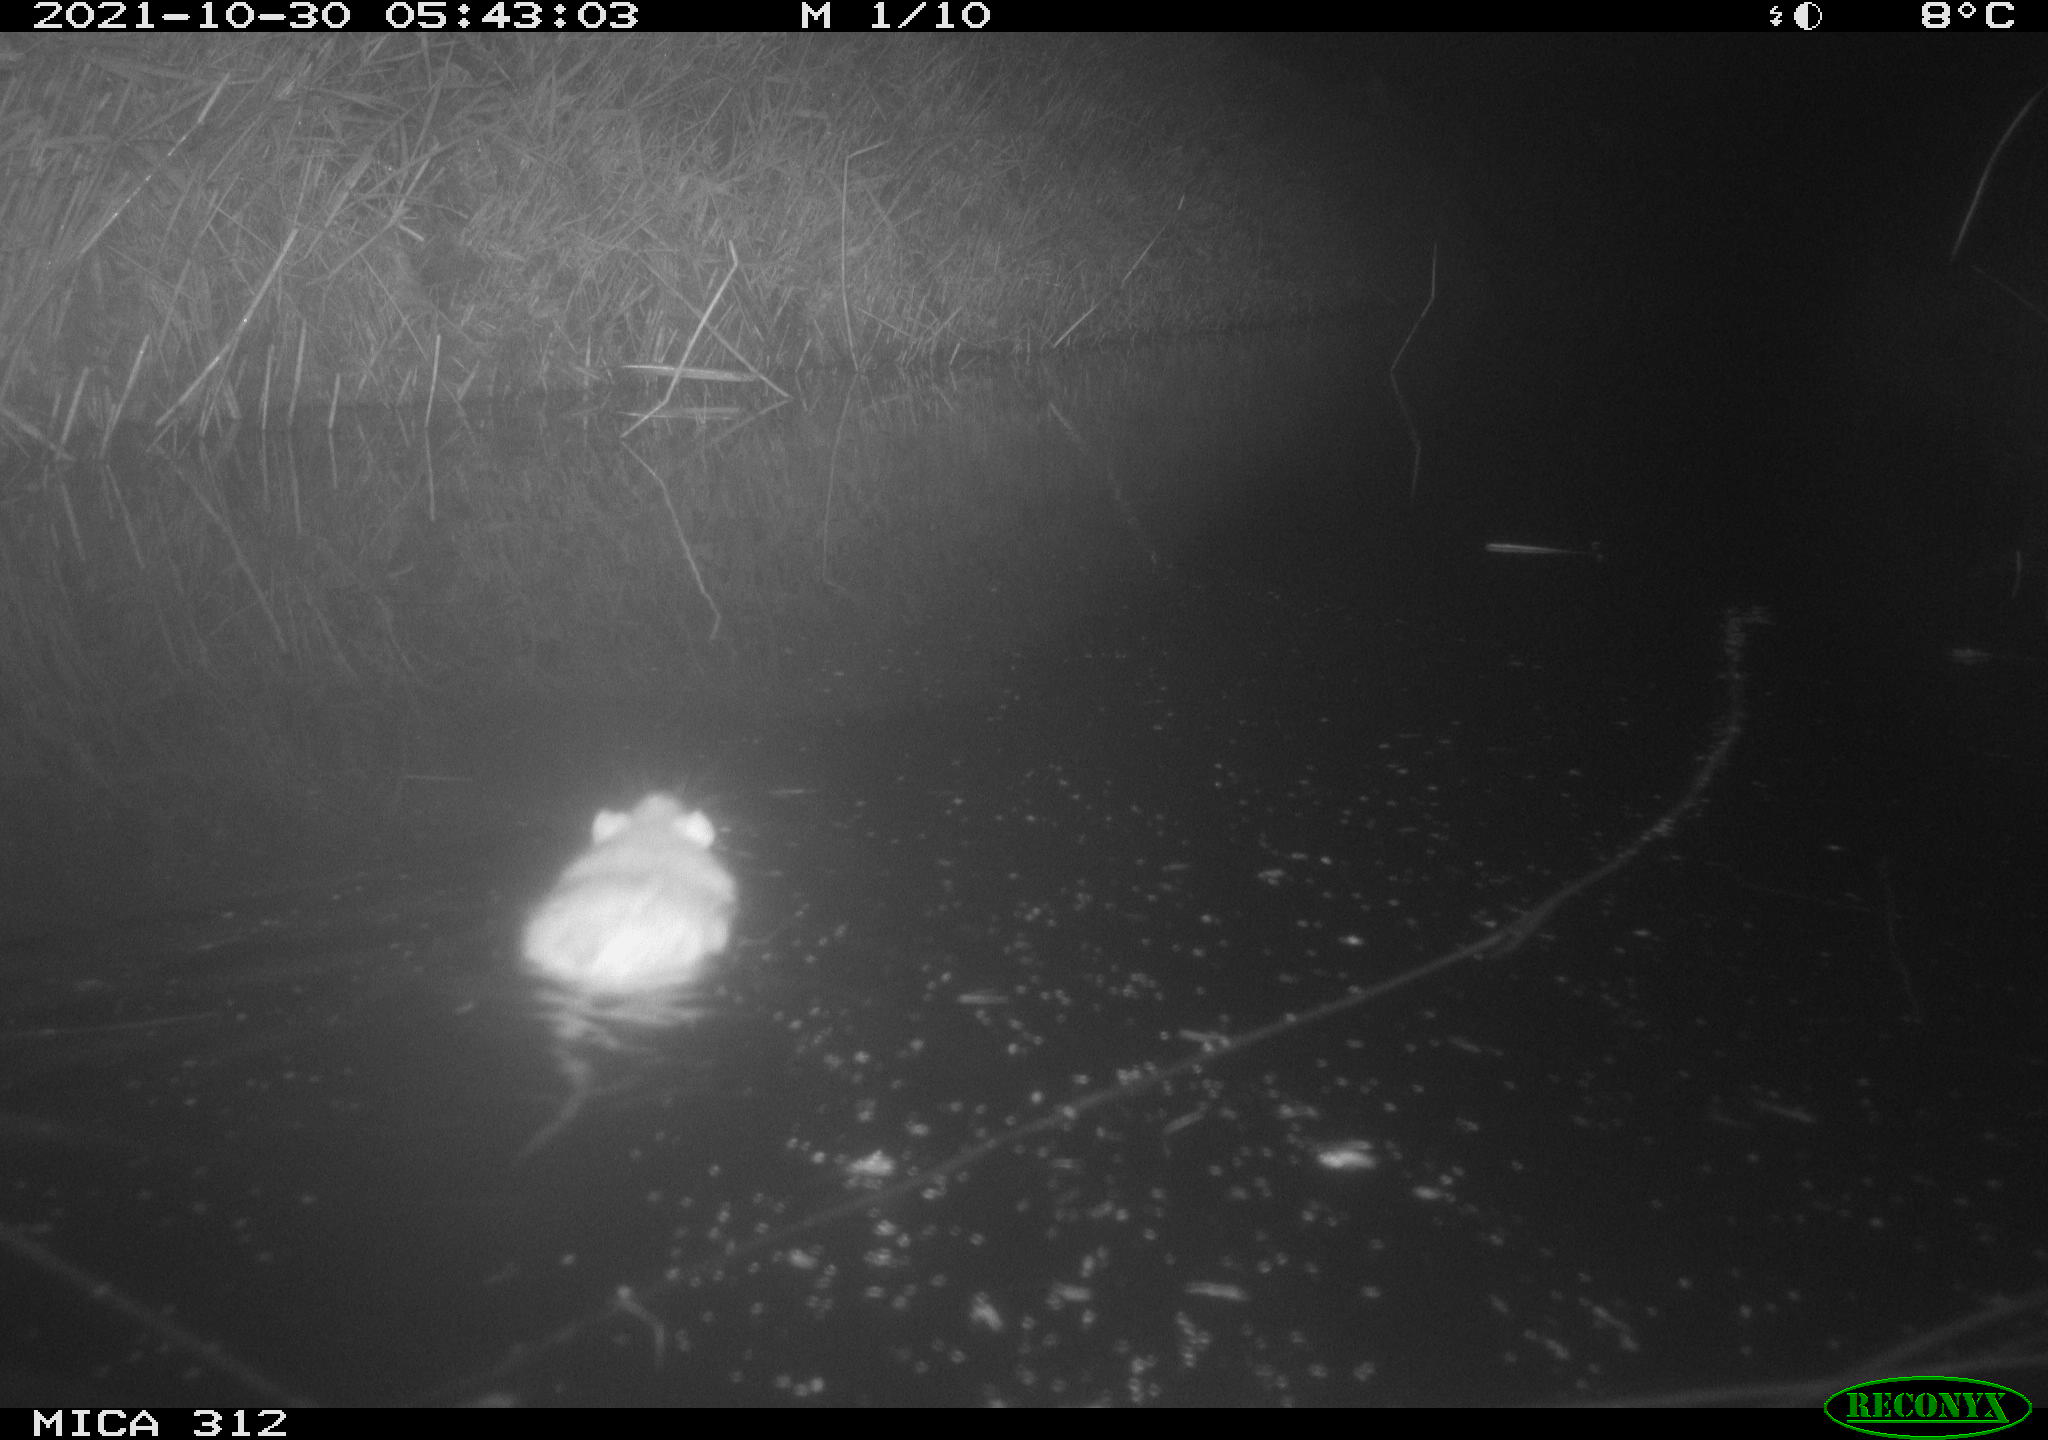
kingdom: Animalia
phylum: Chordata
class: Mammalia
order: Rodentia
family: Cricetidae
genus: Ondatra
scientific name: Ondatra zibethicus
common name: Muskrat
